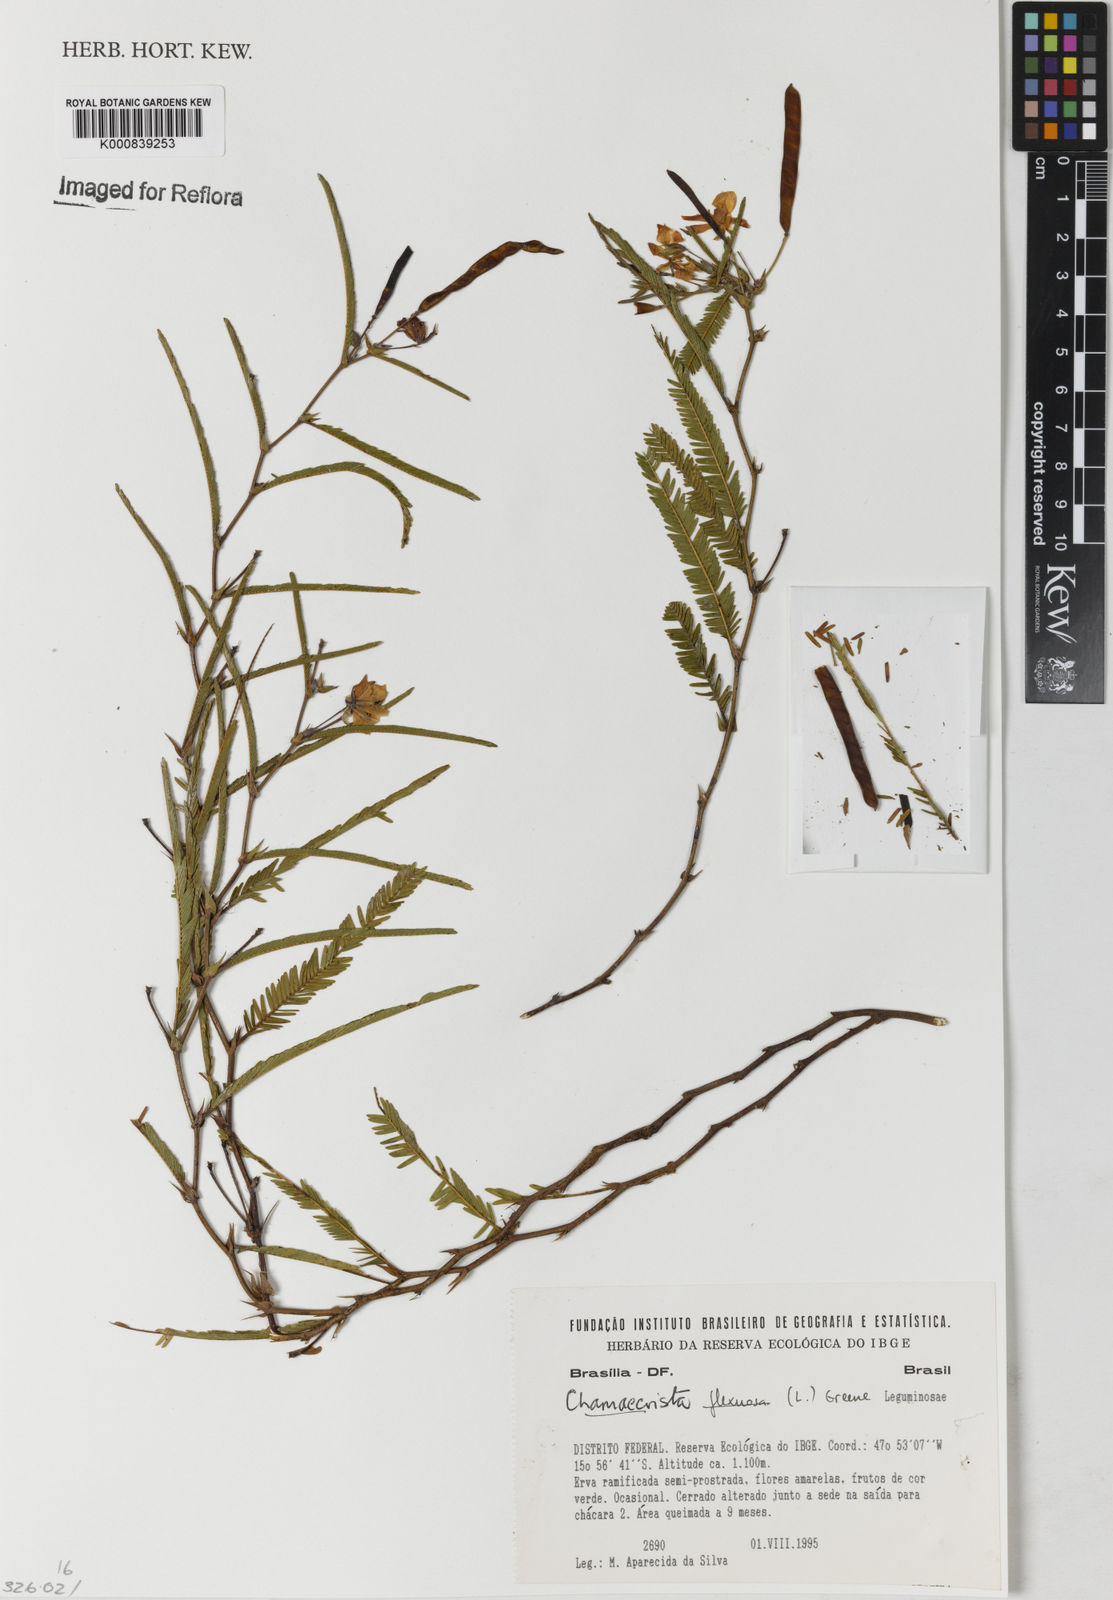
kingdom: Plantae
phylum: Tracheophyta
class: Magnoliopsida
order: Fabales
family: Fabaceae
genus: Chamaecrista
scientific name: Chamaecrista flexuosa
